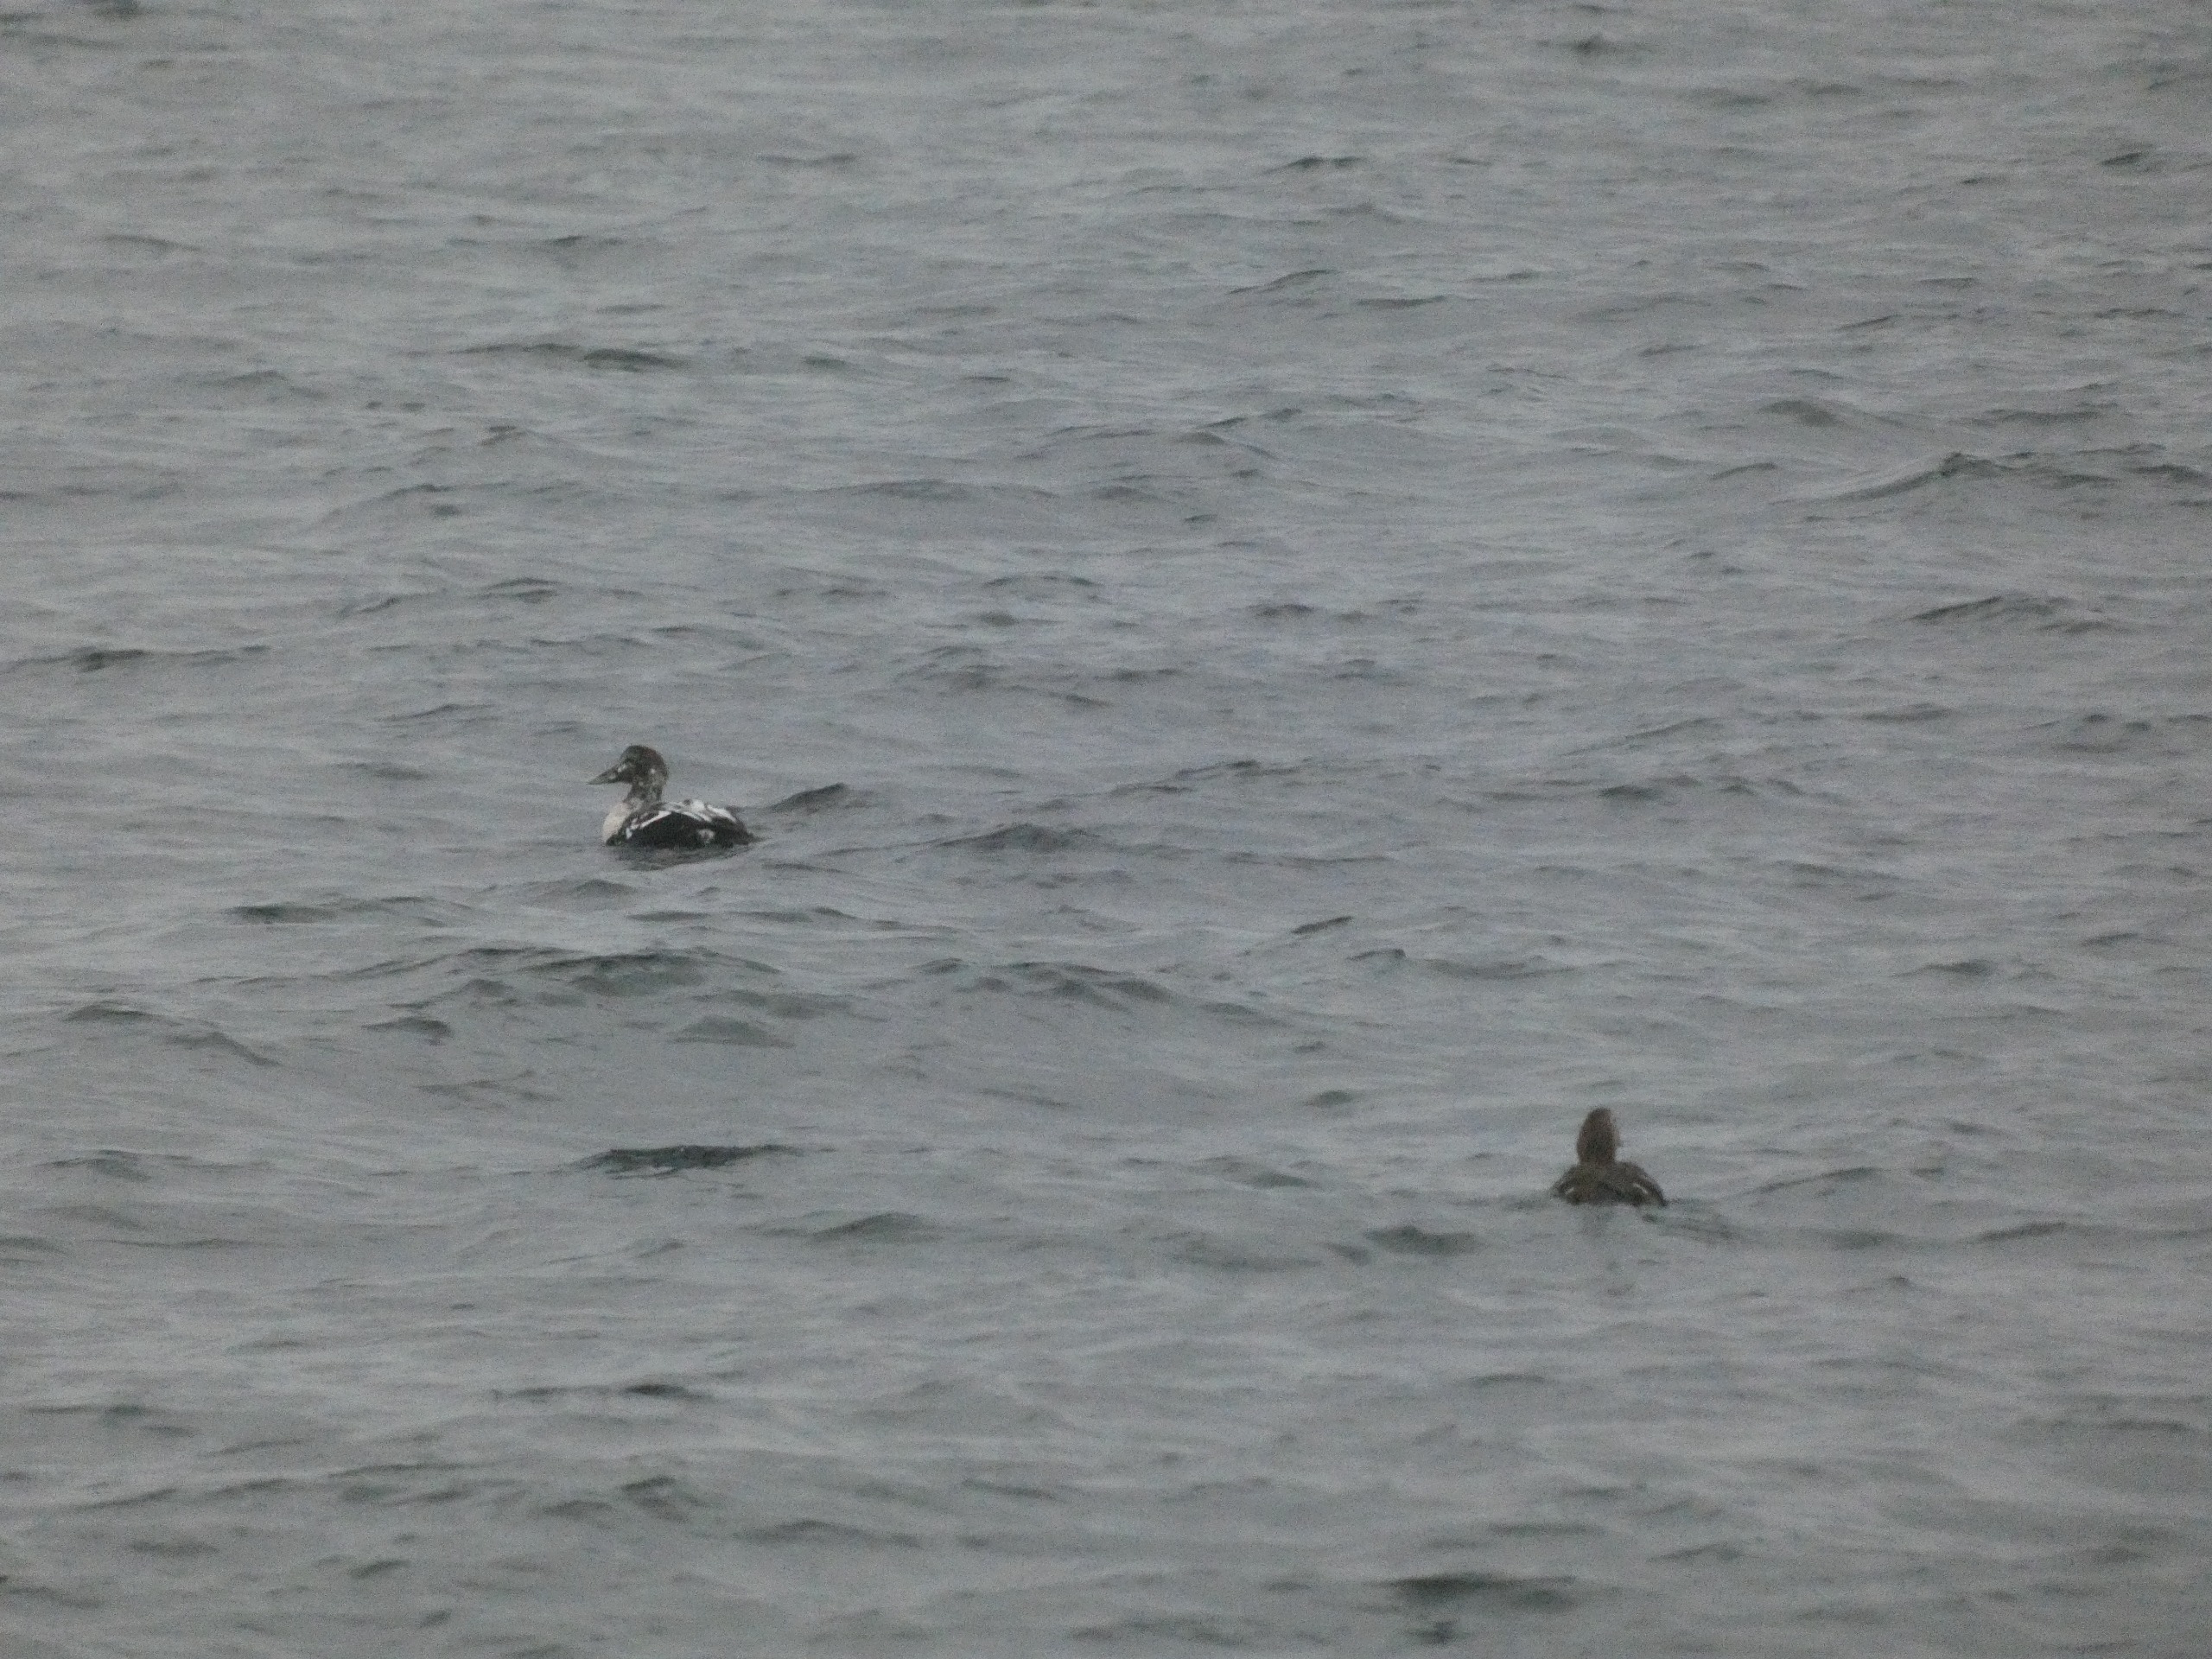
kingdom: Animalia
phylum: Chordata
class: Aves
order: Anseriformes
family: Anatidae
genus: Somateria
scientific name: Somateria mollissima
